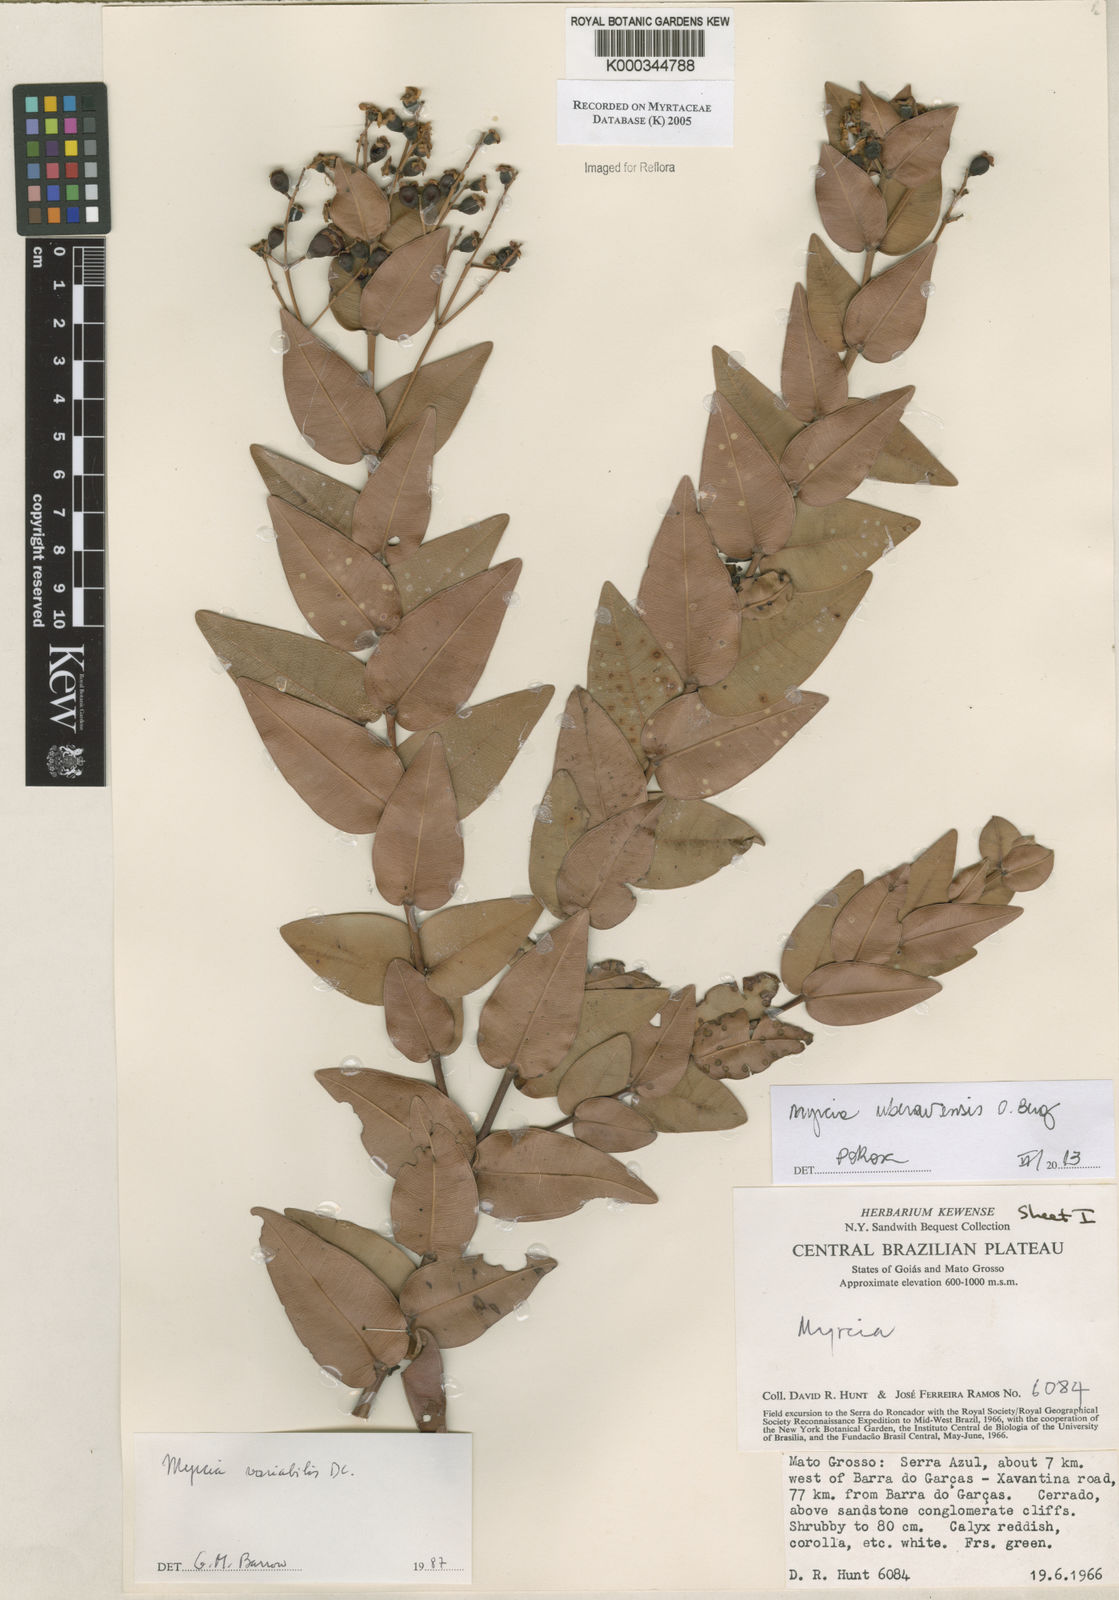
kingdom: Plantae
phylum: Tracheophyta
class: Magnoliopsida
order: Myrtales
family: Myrtaceae
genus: Myrcia
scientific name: Myrcia variabilis
